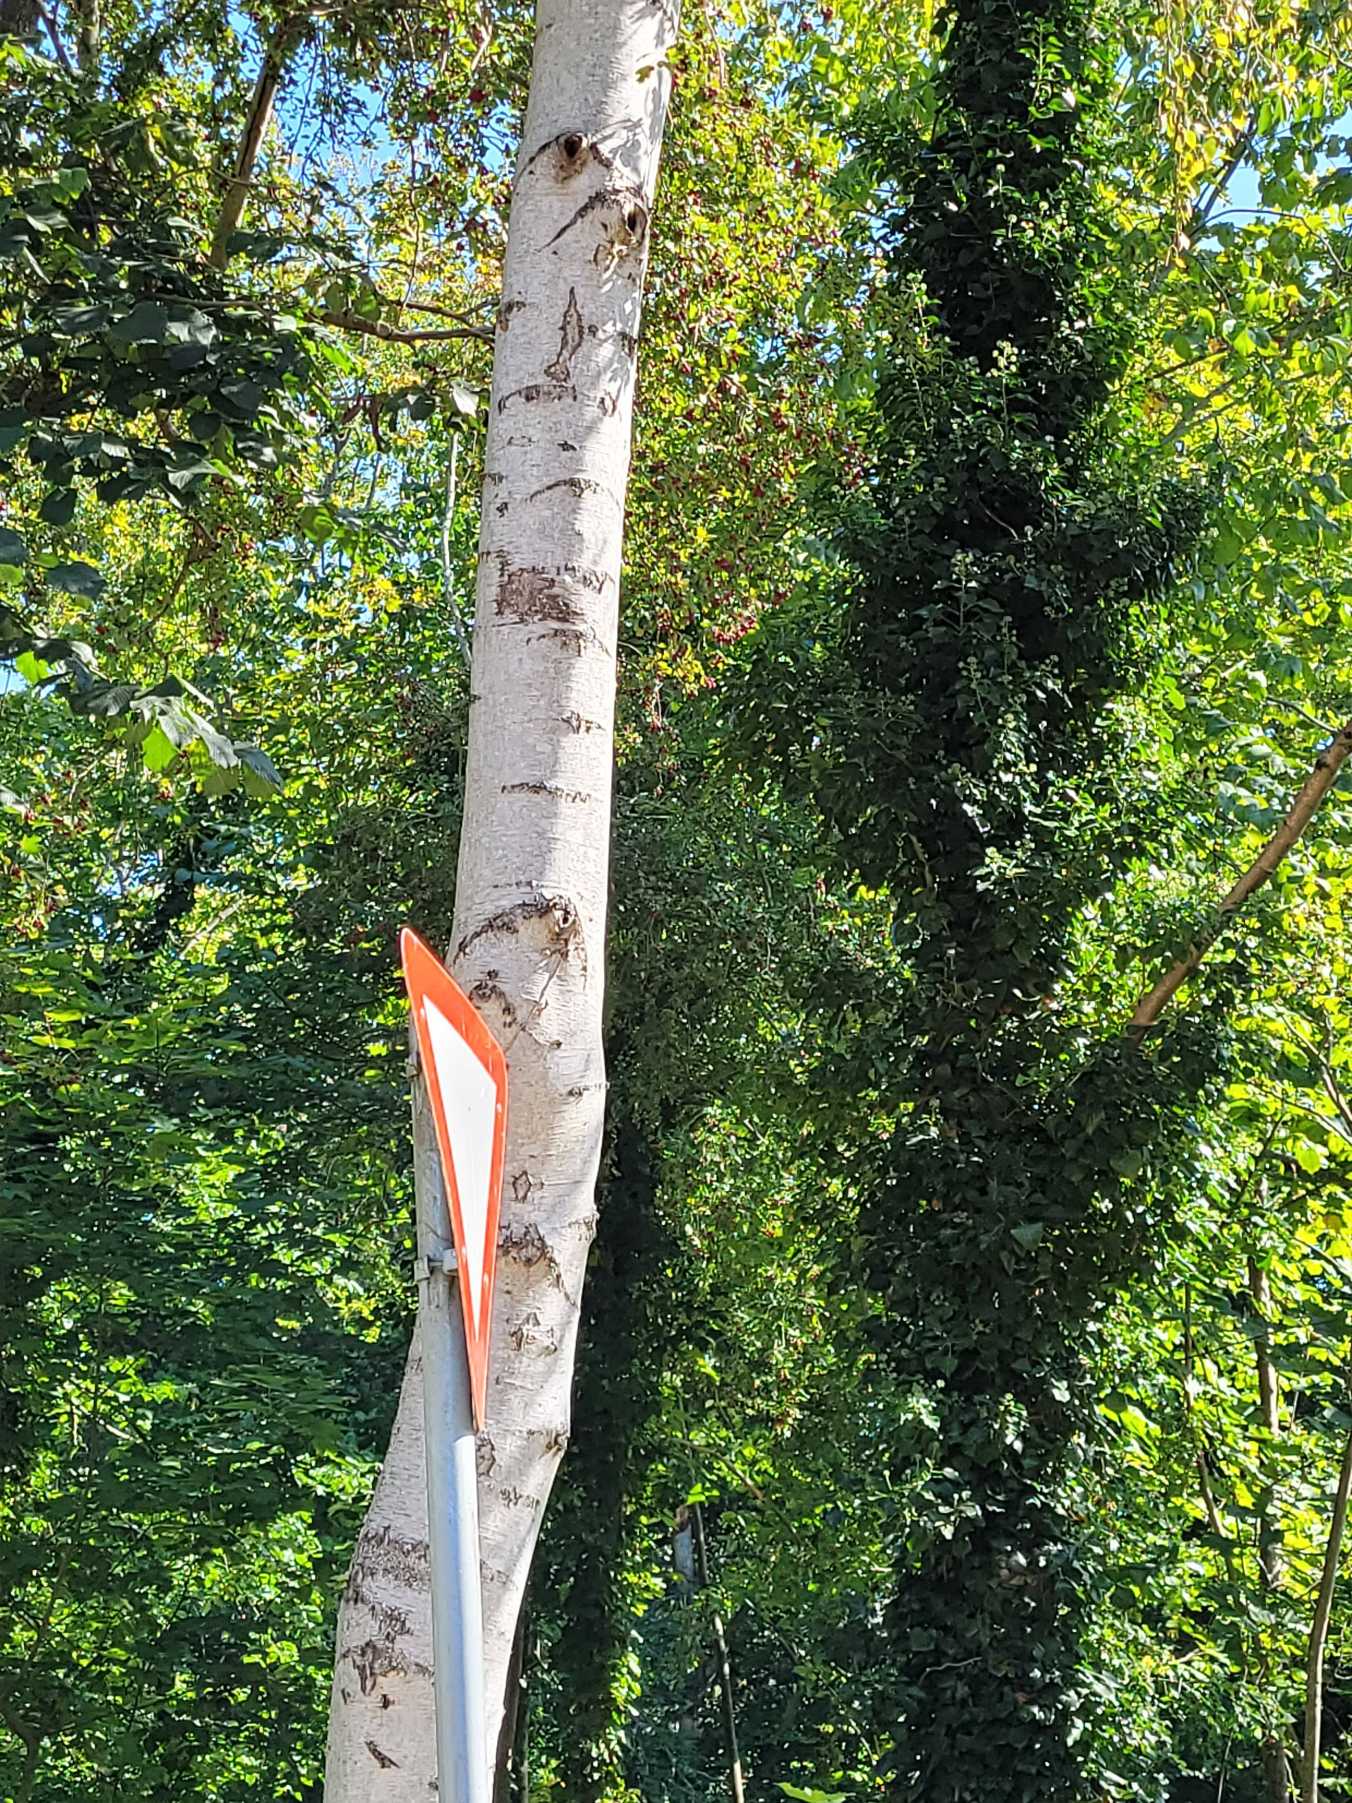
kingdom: Plantae
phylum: Tracheophyta
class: Magnoliopsida
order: Fagales
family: Betulaceae
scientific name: Betulaceae
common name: Birkefamilien
